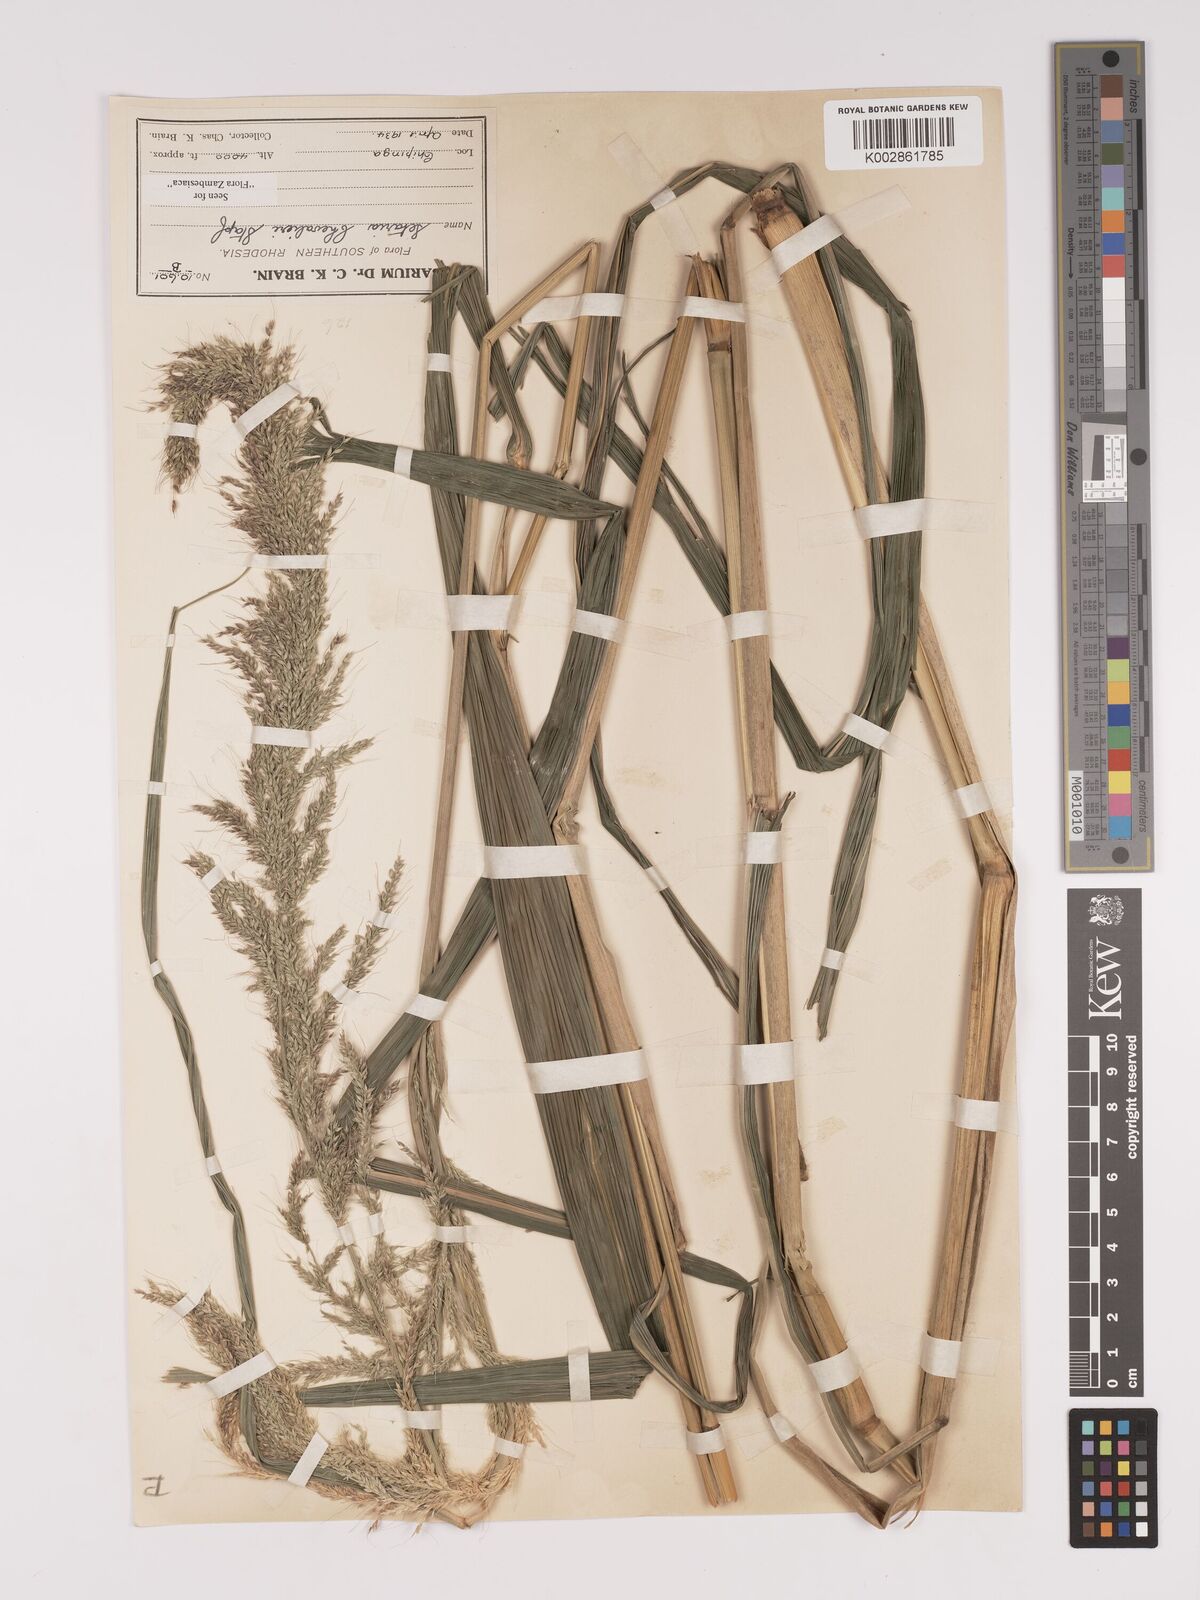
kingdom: Plantae
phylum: Tracheophyta
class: Liliopsida
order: Poales
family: Poaceae
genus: Setaria
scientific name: Setaria megaphylla
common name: Bigleaf bristlegrass
